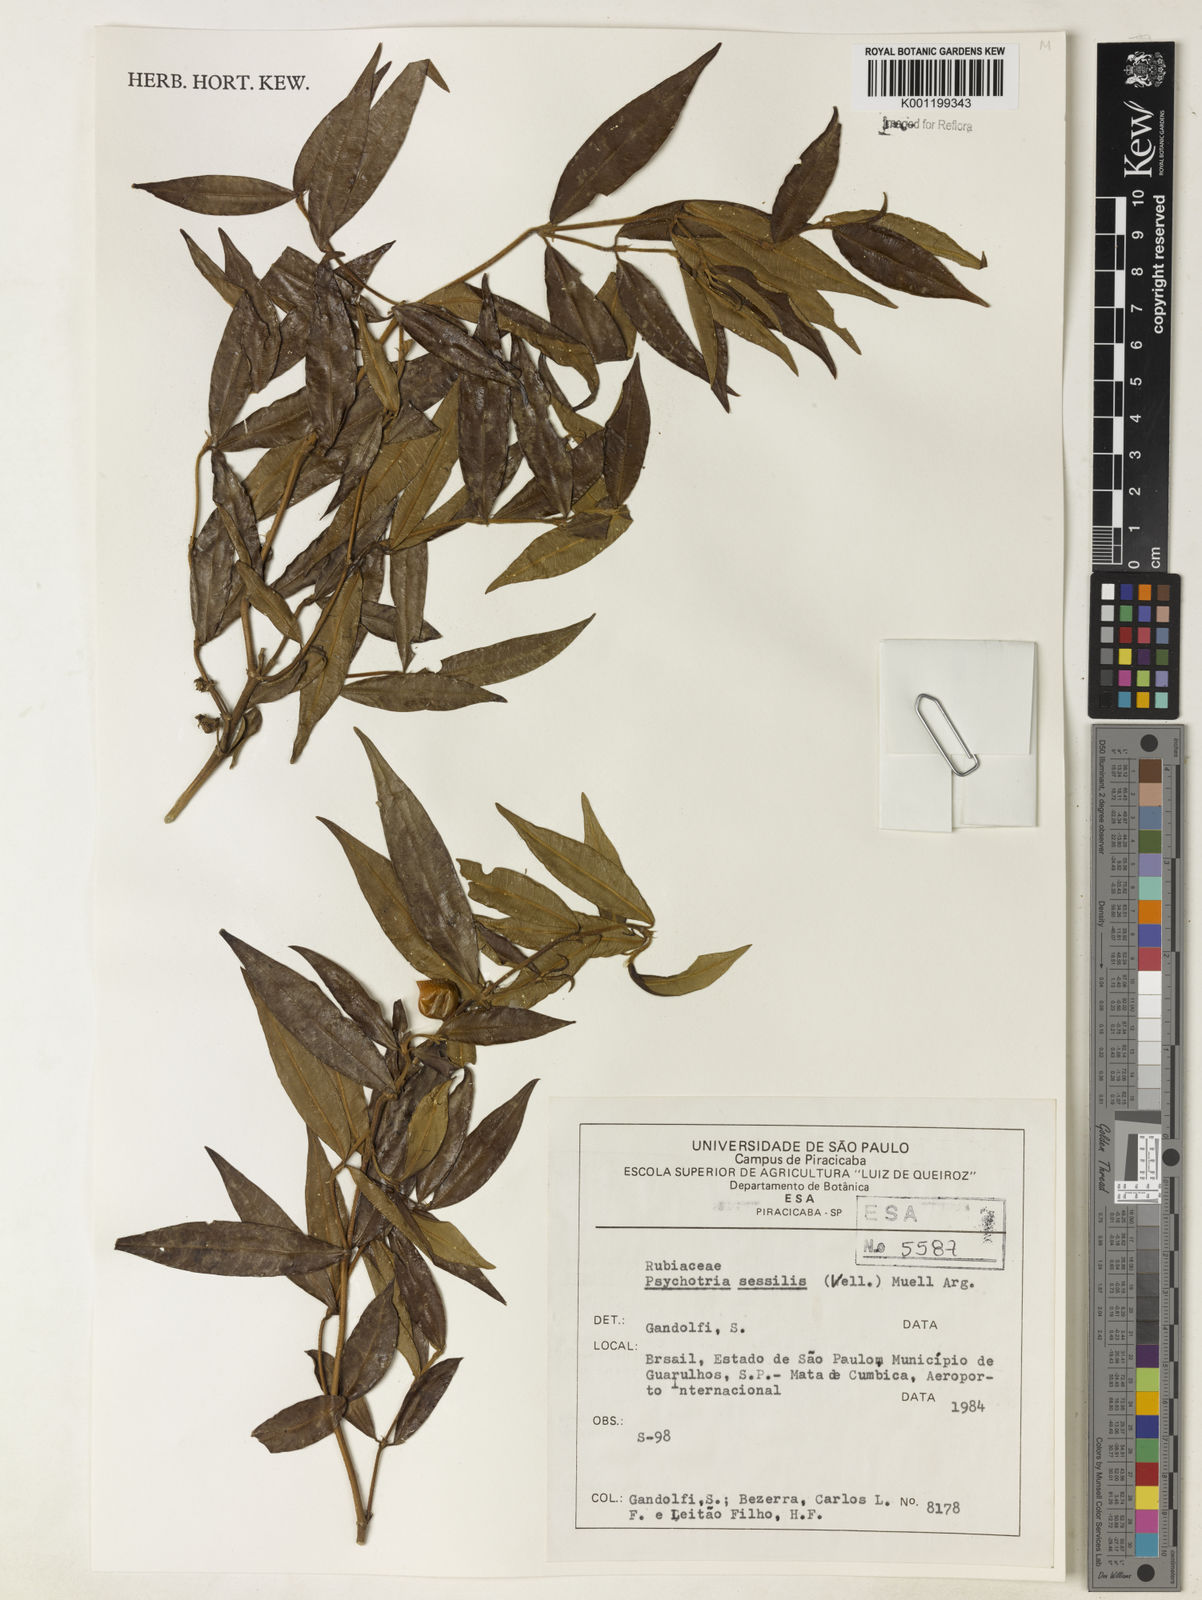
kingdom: Plantae
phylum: Tracheophyta
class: Magnoliopsida
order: Gentianales
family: Rubiaceae
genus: Rudgea
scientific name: Rudgea sessilis
